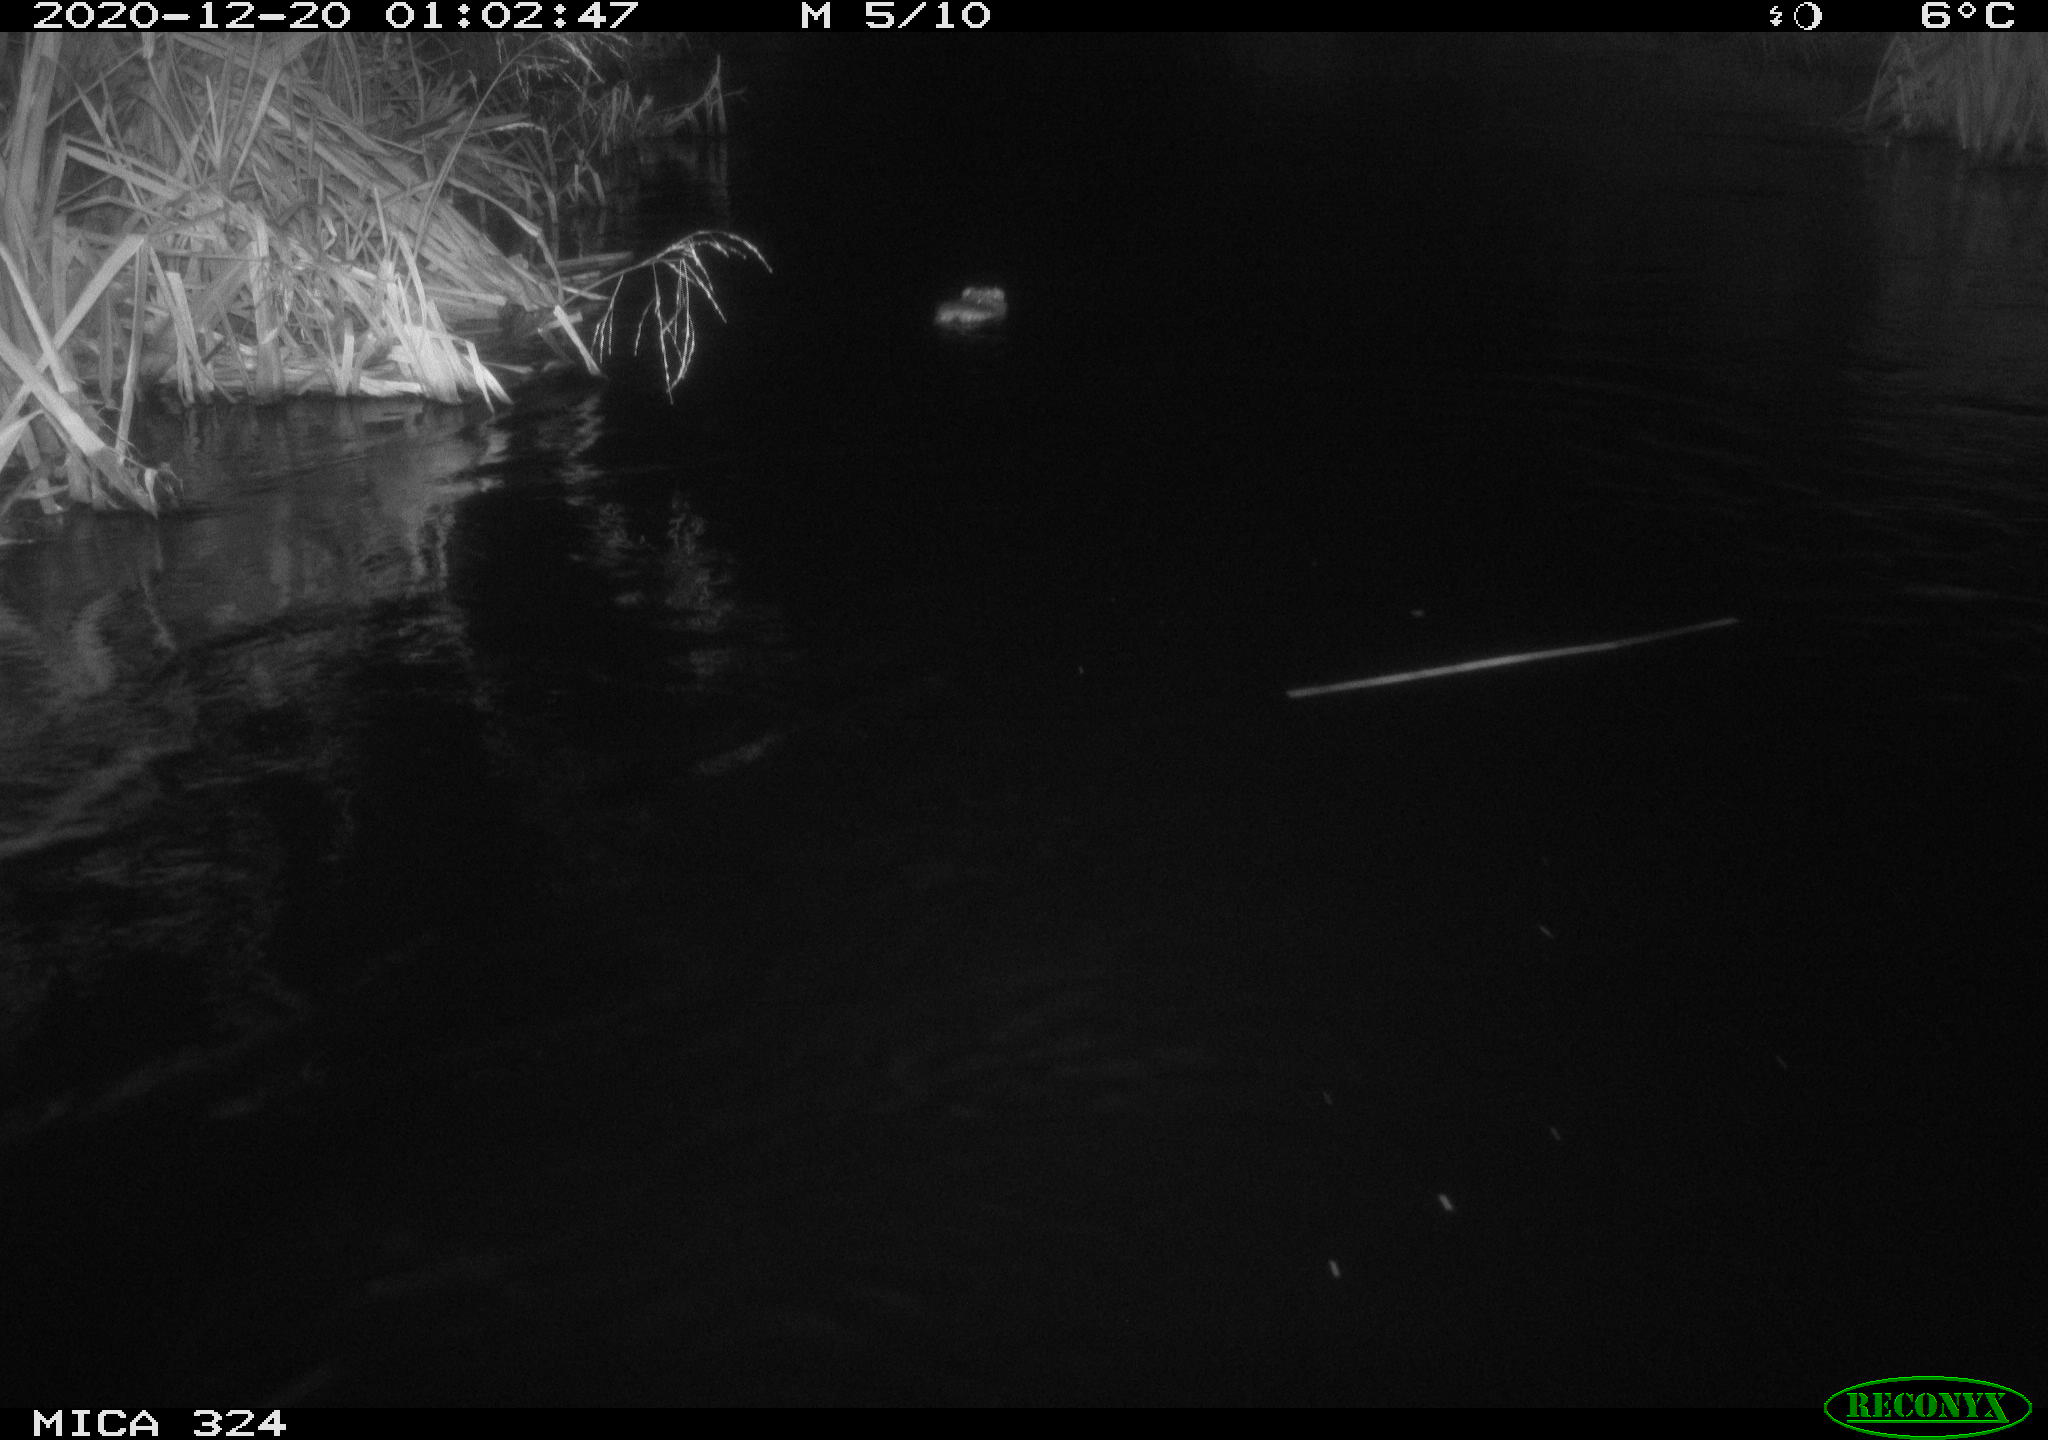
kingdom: Animalia
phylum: Chordata
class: Mammalia
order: Rodentia
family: Cricetidae
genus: Ondatra
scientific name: Ondatra zibethicus
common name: Muskrat
